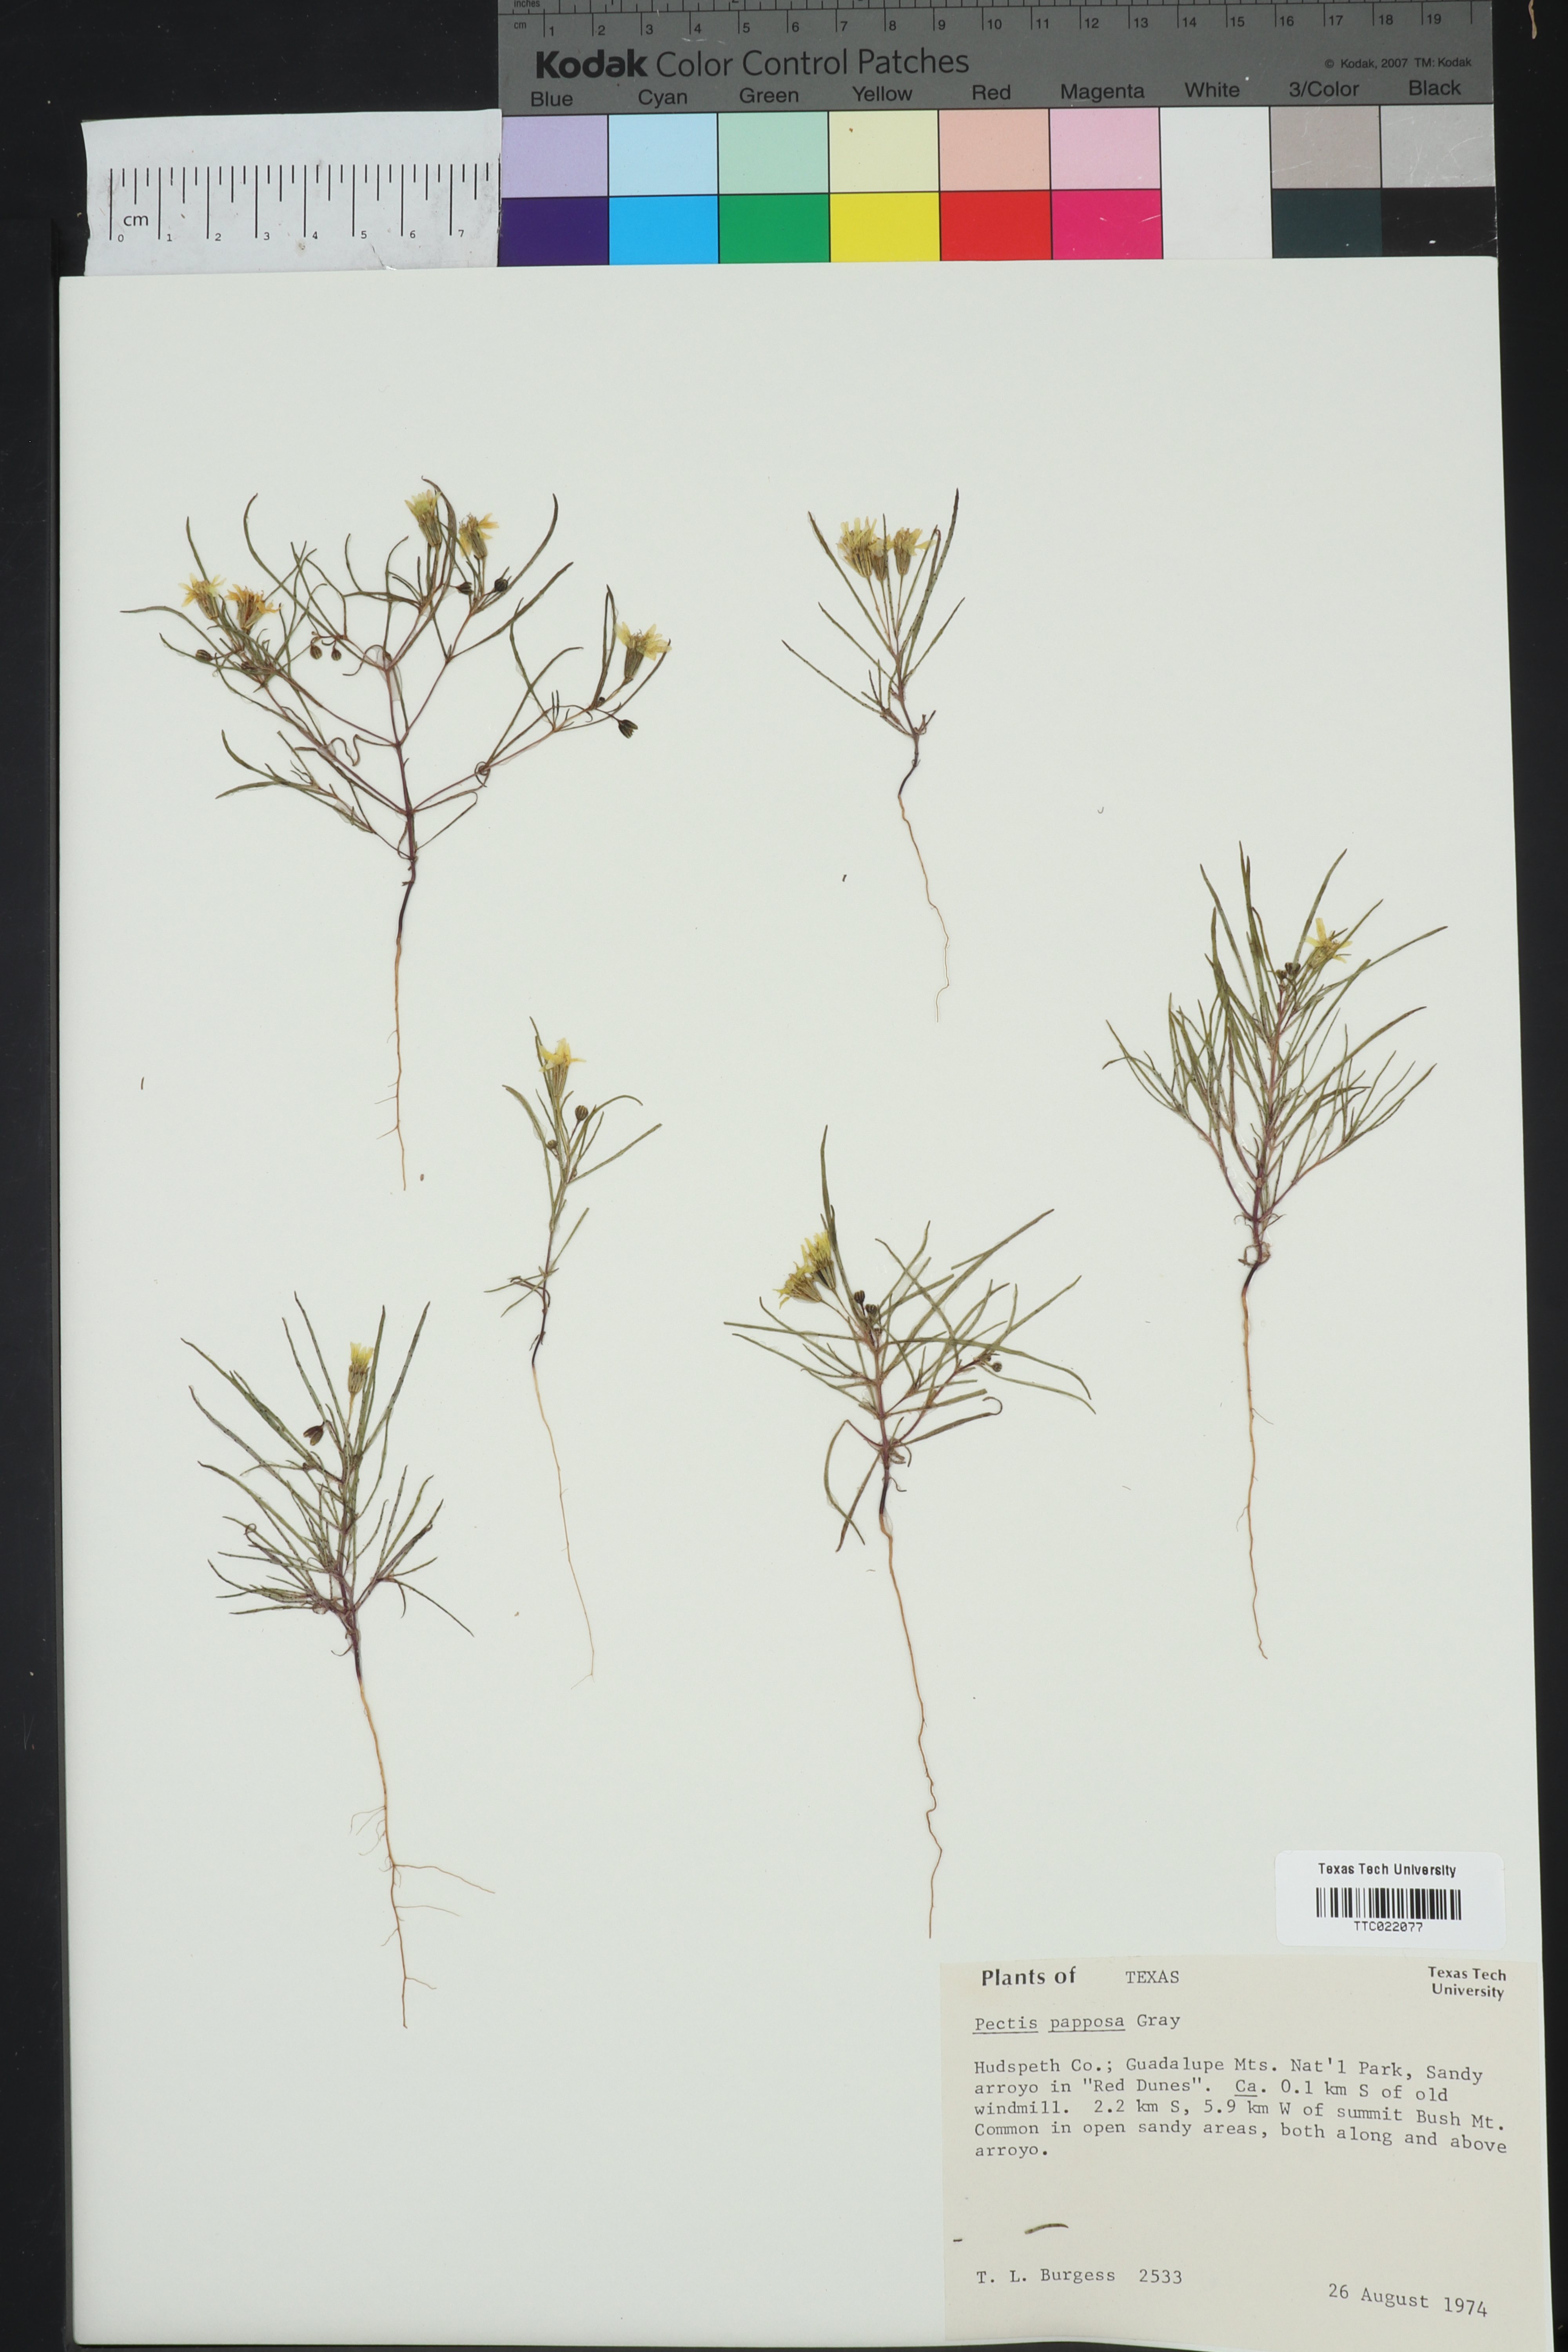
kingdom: Plantae
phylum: Tracheophyta
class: Magnoliopsida
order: Asterales
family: Asteraceae
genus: Pectis
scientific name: Pectis papposa
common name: Many-bristle chinchweed
